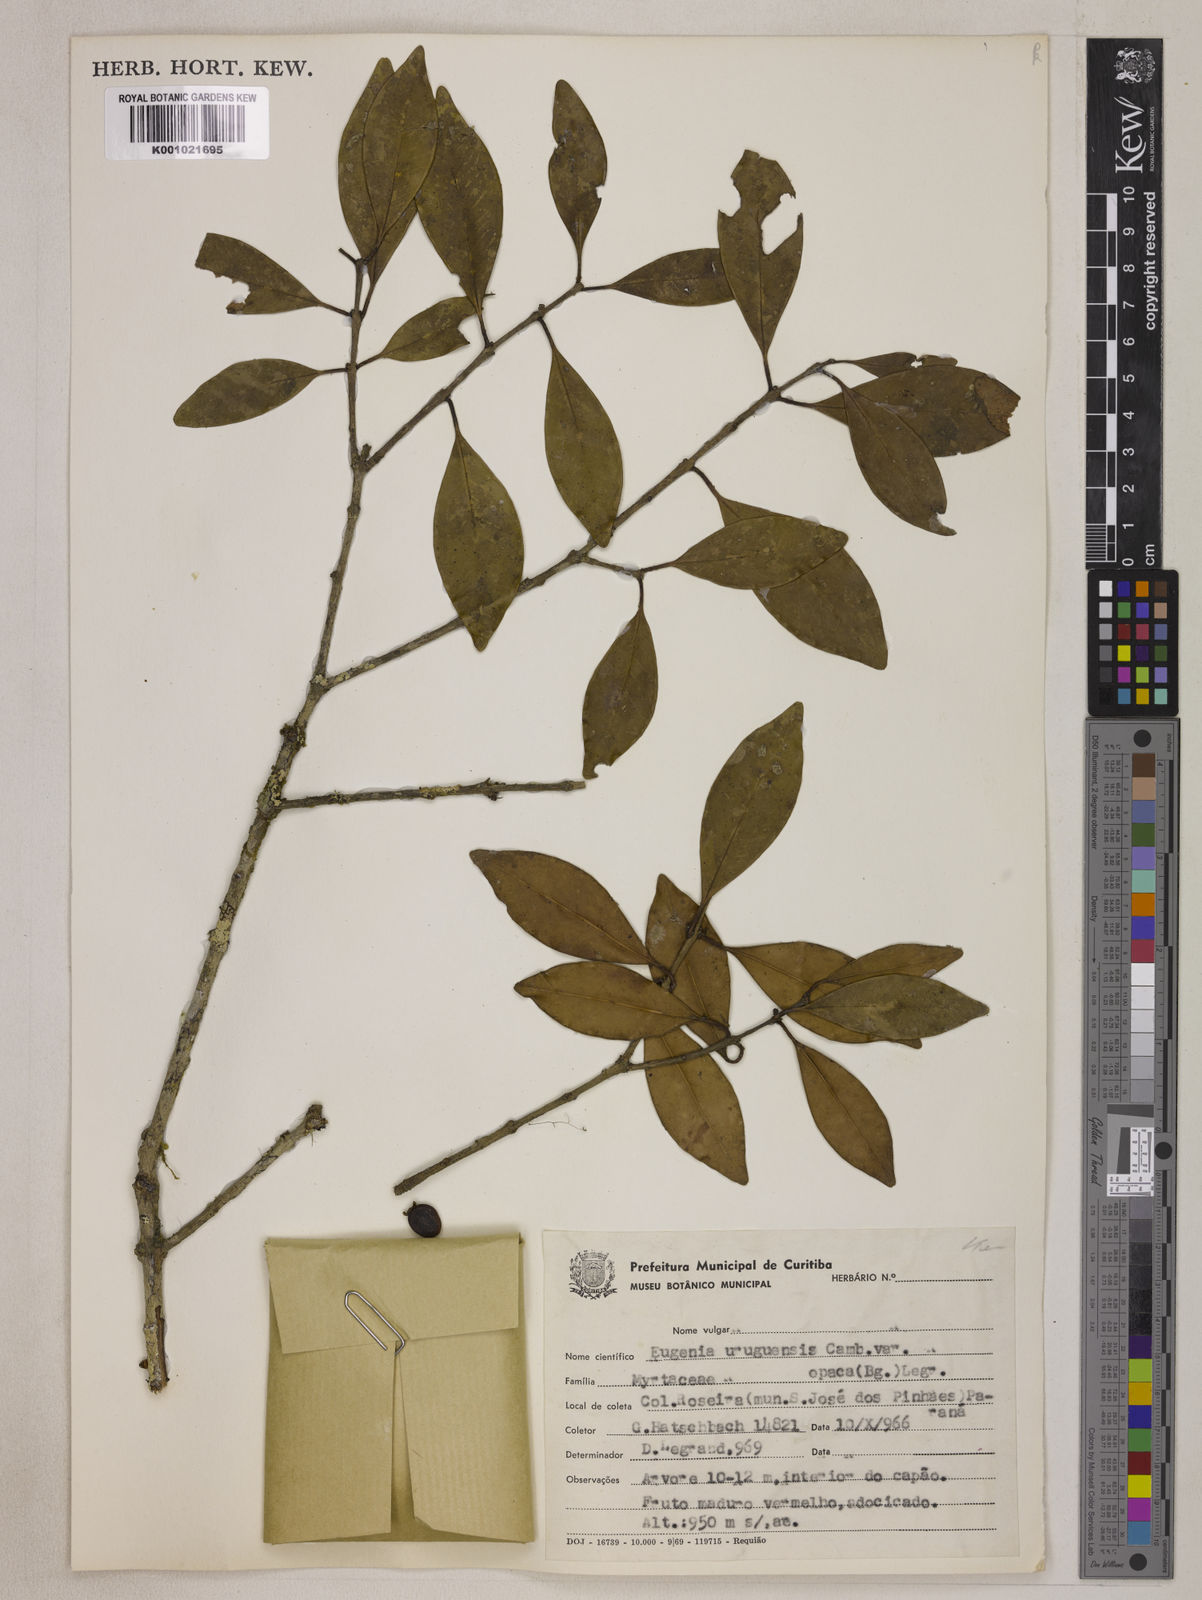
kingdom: Plantae
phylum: Tracheophyta
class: Magnoliopsida
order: Myrtales
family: Myrtaceae
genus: Eugenia
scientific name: Eugenia uruguayensis
